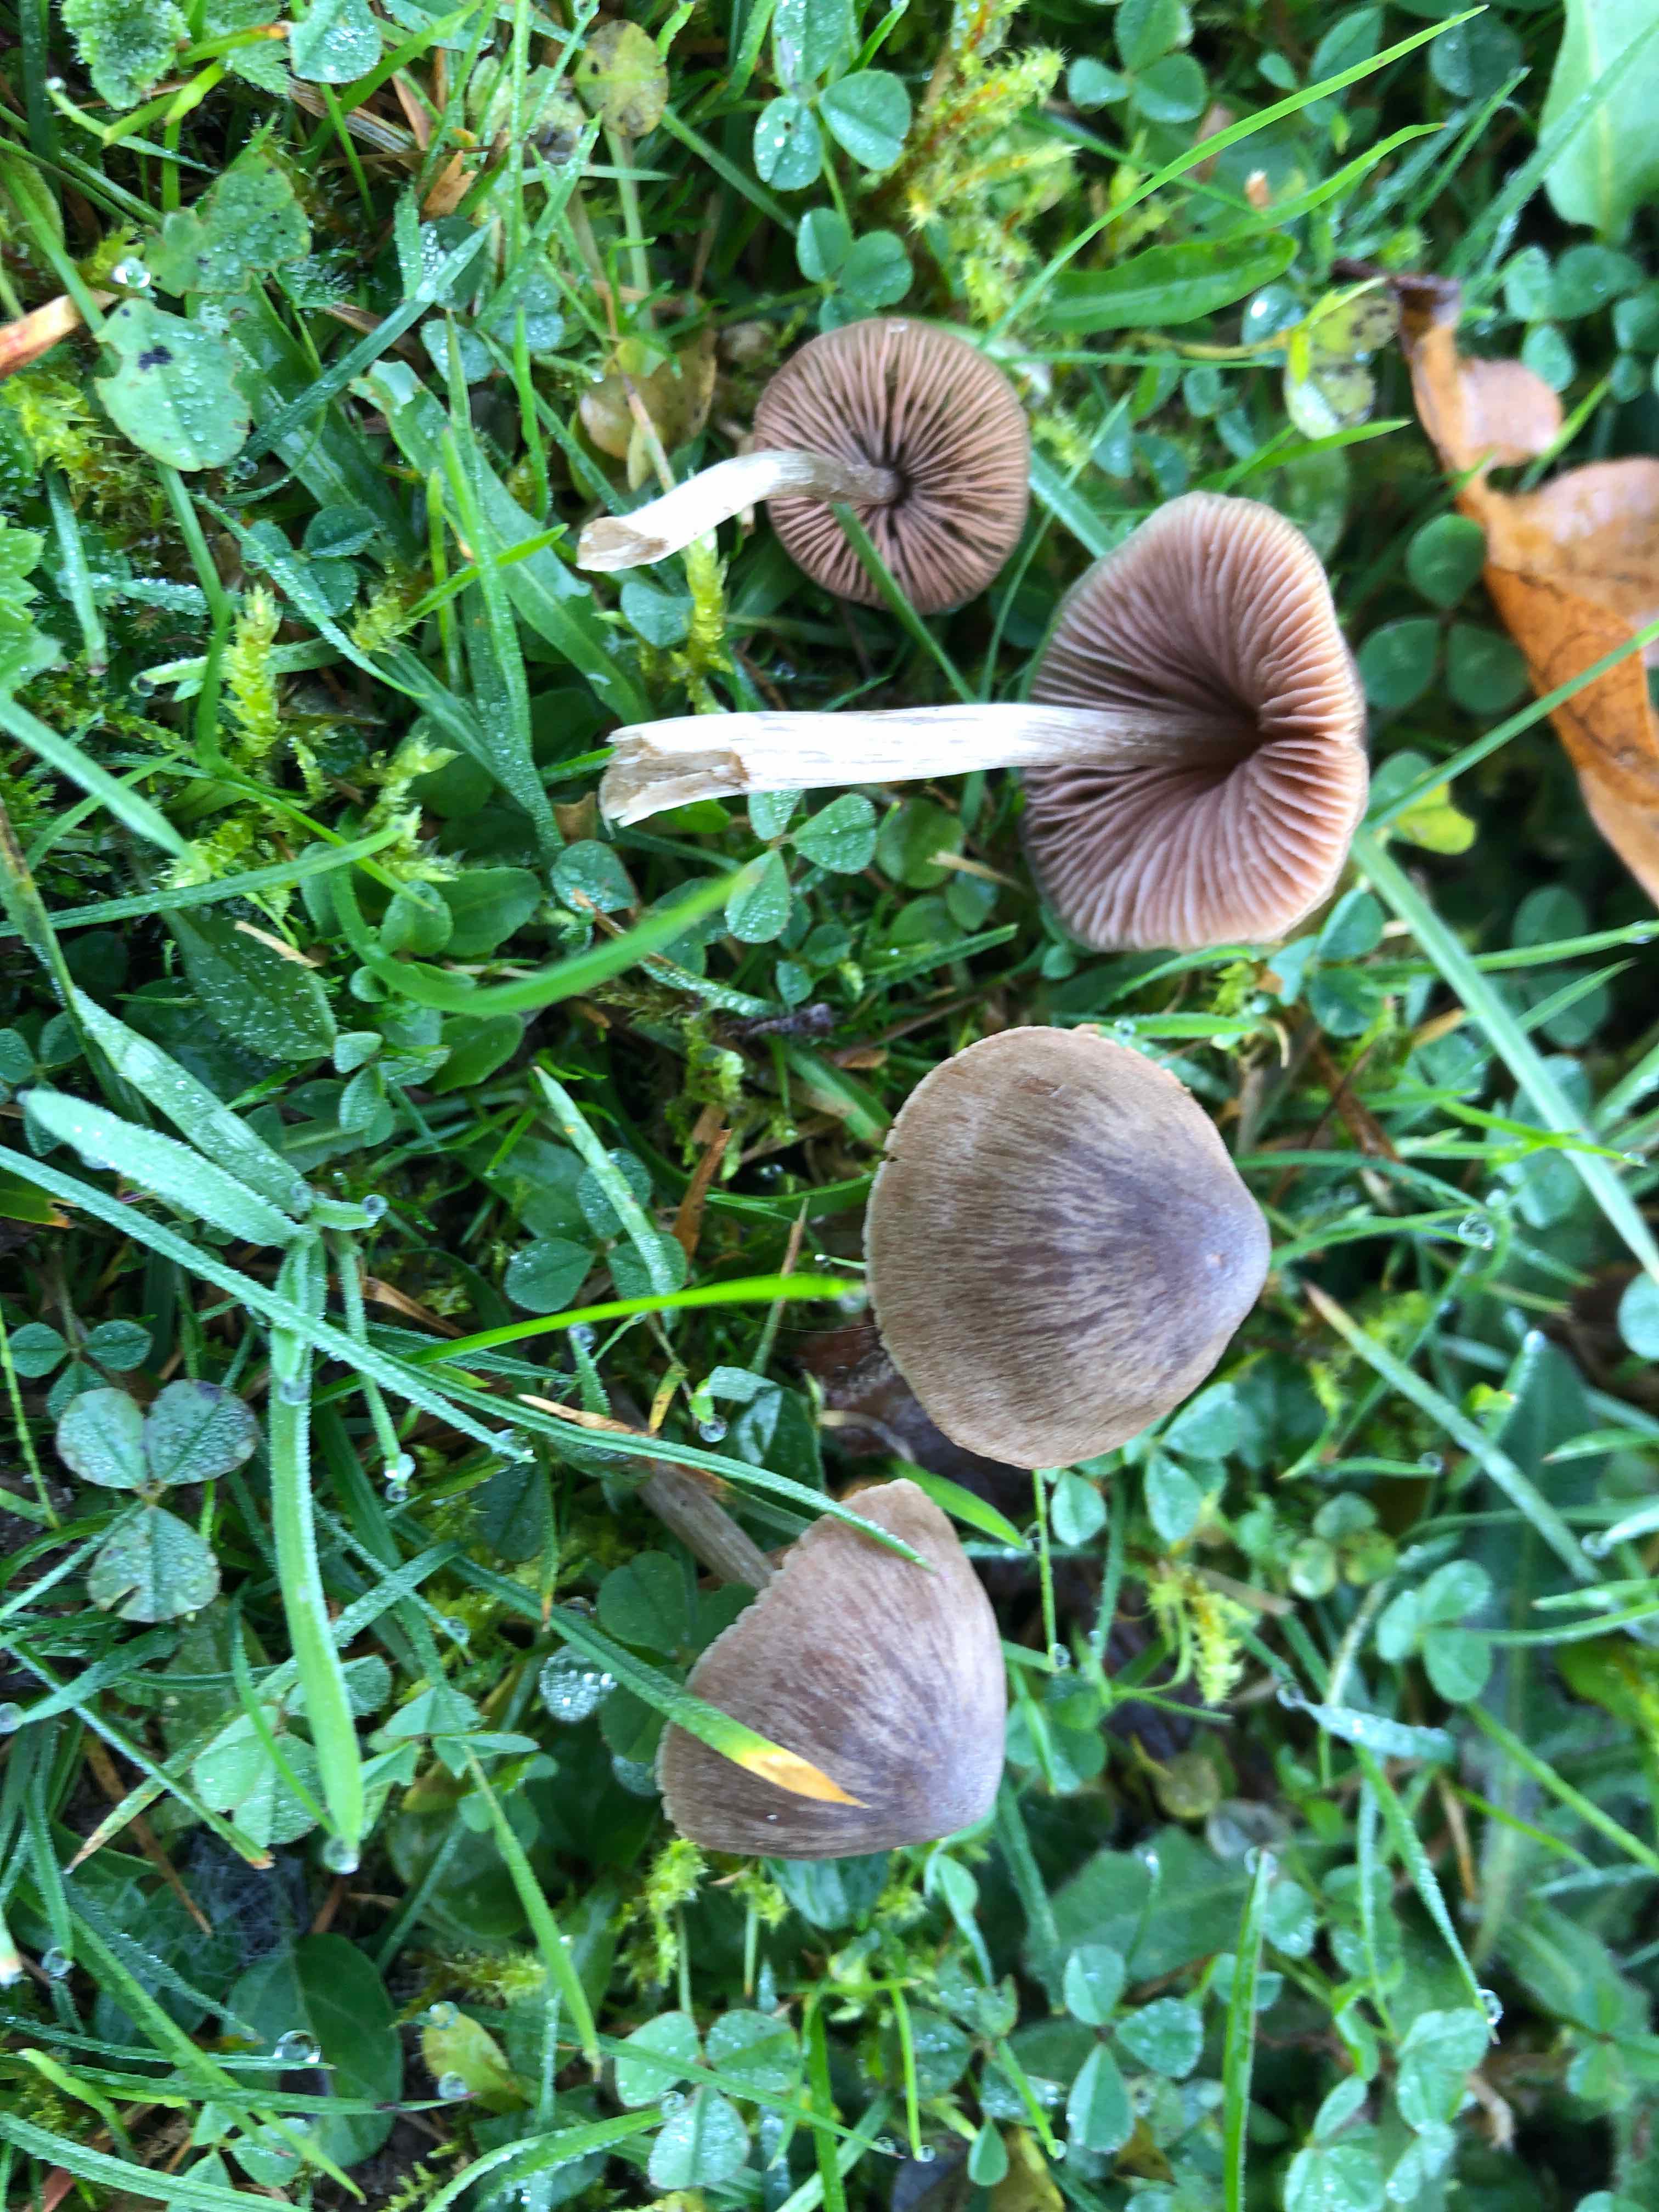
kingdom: Fungi
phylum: Basidiomycota
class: Agaricomycetes
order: Agaricales
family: Entolomataceae
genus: Entoloma
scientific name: Entoloma conferendum
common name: stjernesporet rødblad
